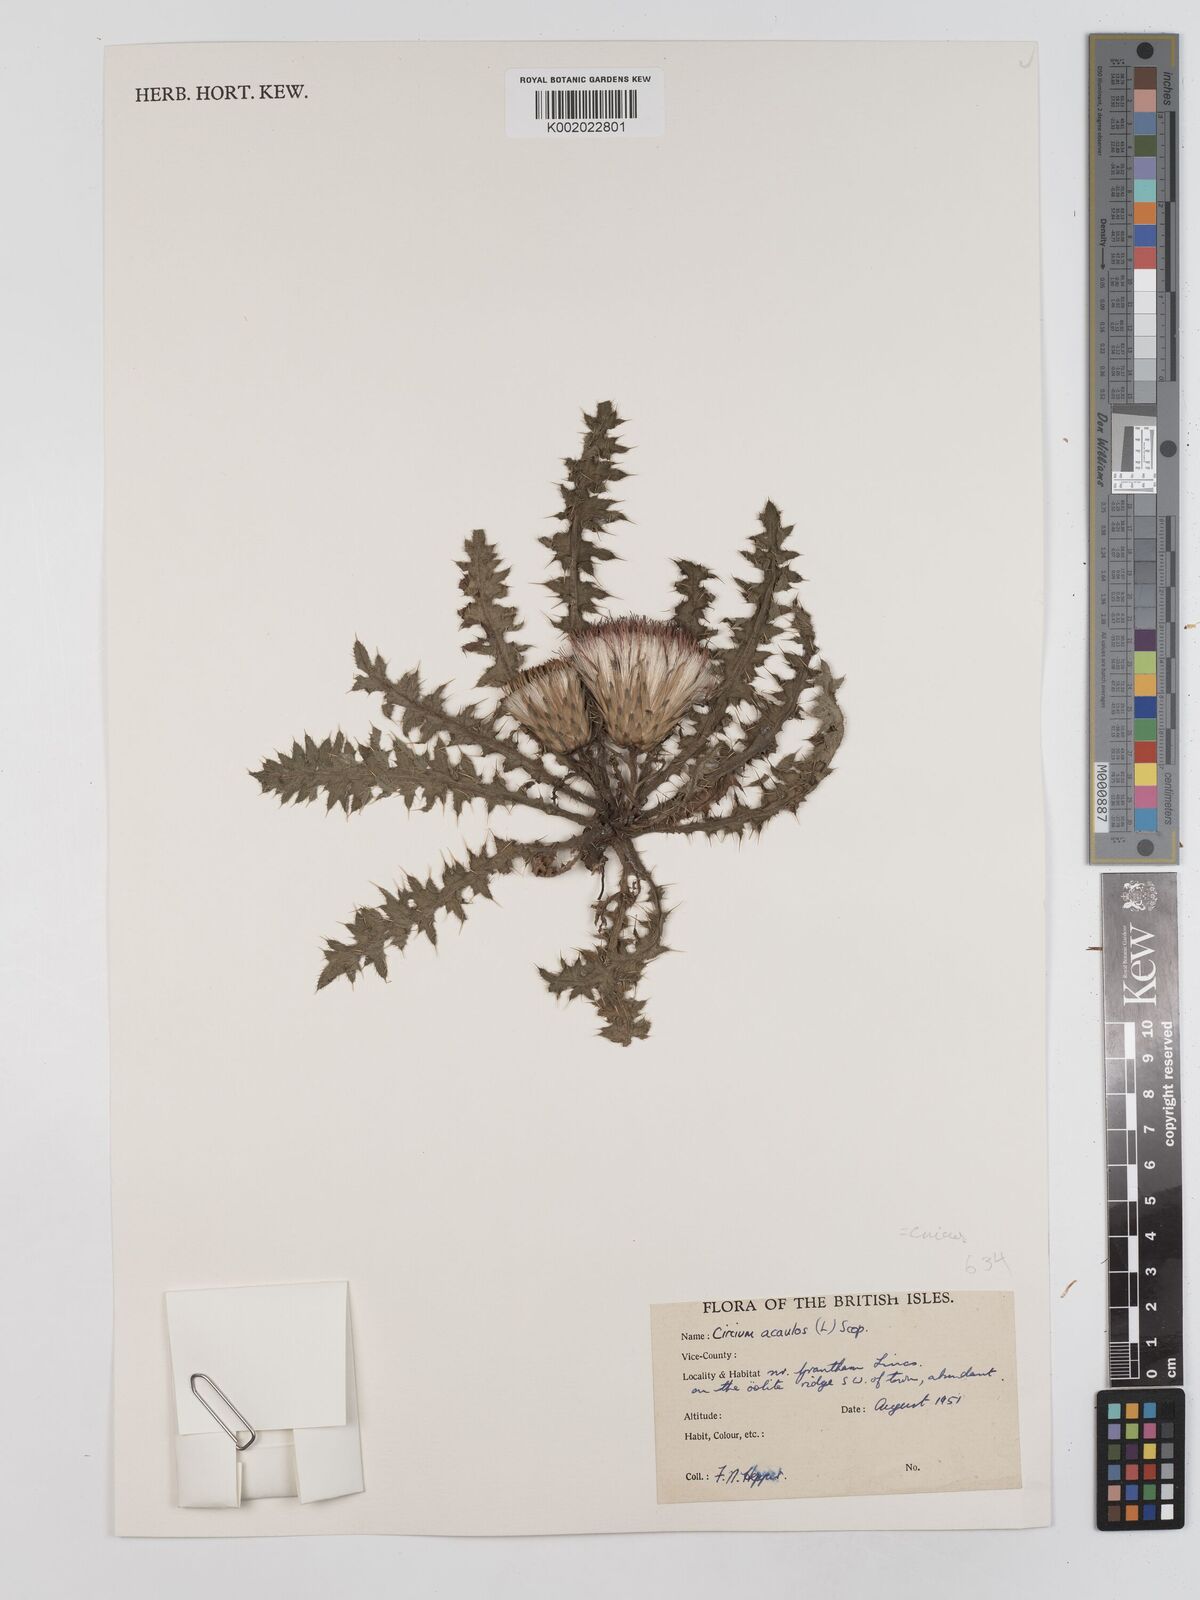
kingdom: Plantae
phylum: Tracheophyta
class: Magnoliopsida
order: Asterales
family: Asteraceae
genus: Cirsium
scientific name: Cirsium acaule
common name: Dwarf thistle
